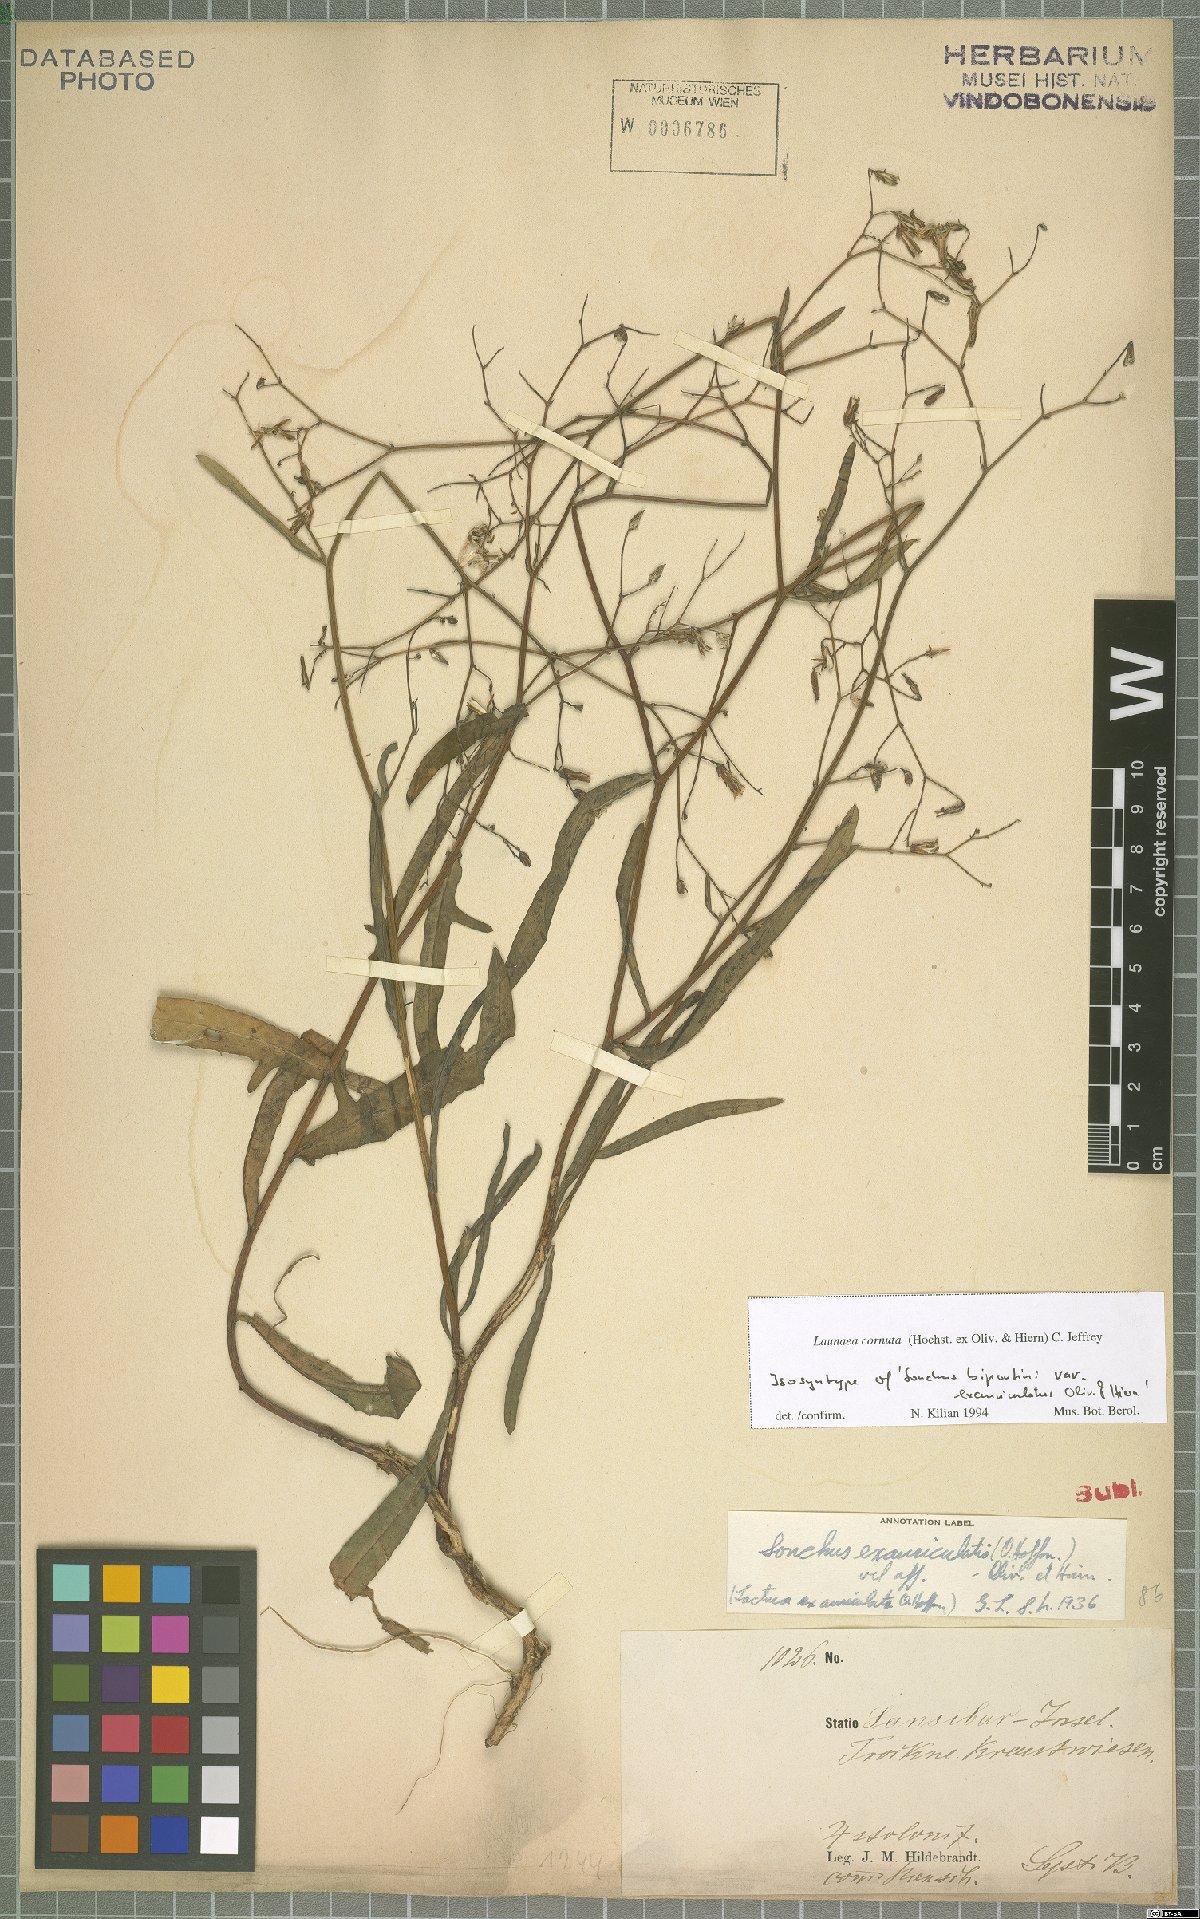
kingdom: Plantae
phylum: Tracheophyta
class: Magnoliopsida
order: Asterales
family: Asteraceae
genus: Launaea
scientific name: Launaea cornuta
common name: Bitter-lettuce
